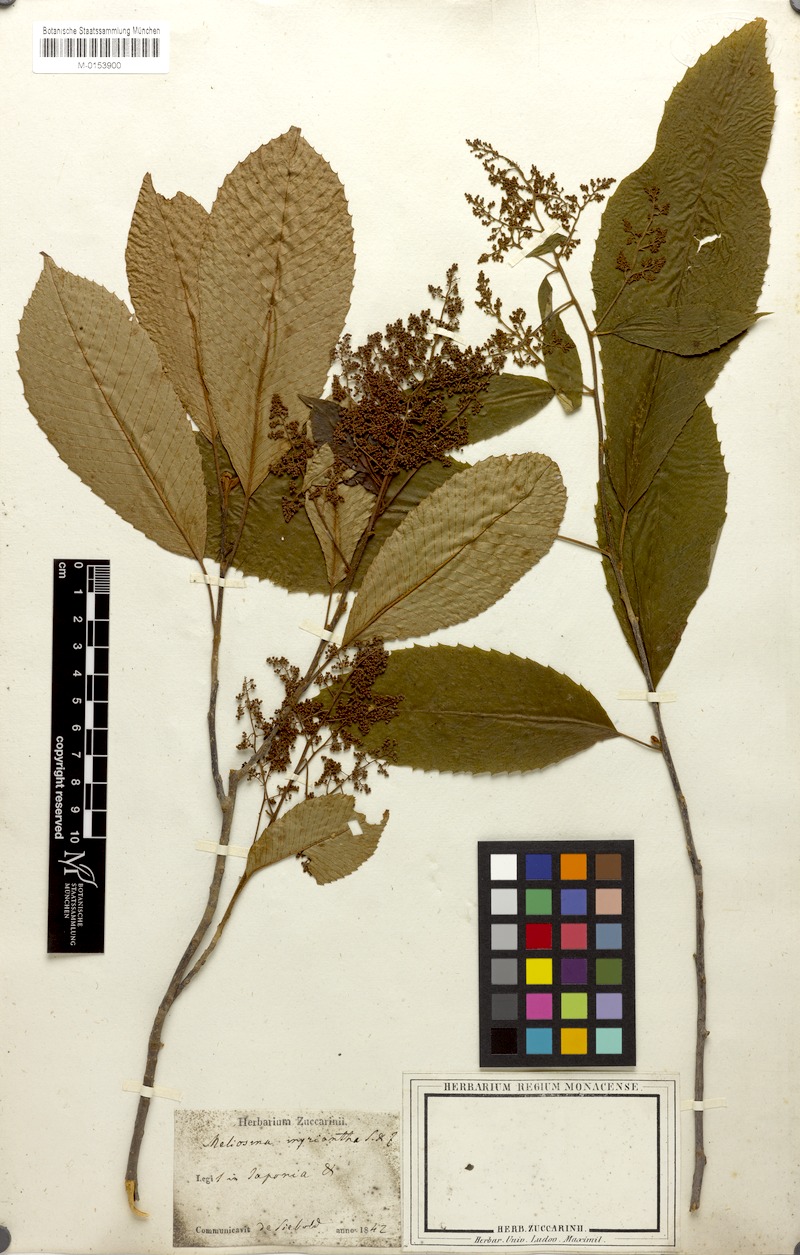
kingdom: Plantae
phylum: Tracheophyta
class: Magnoliopsida
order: Proteales
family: Sabiaceae
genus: Meliosma
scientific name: Meliosma myriantha
